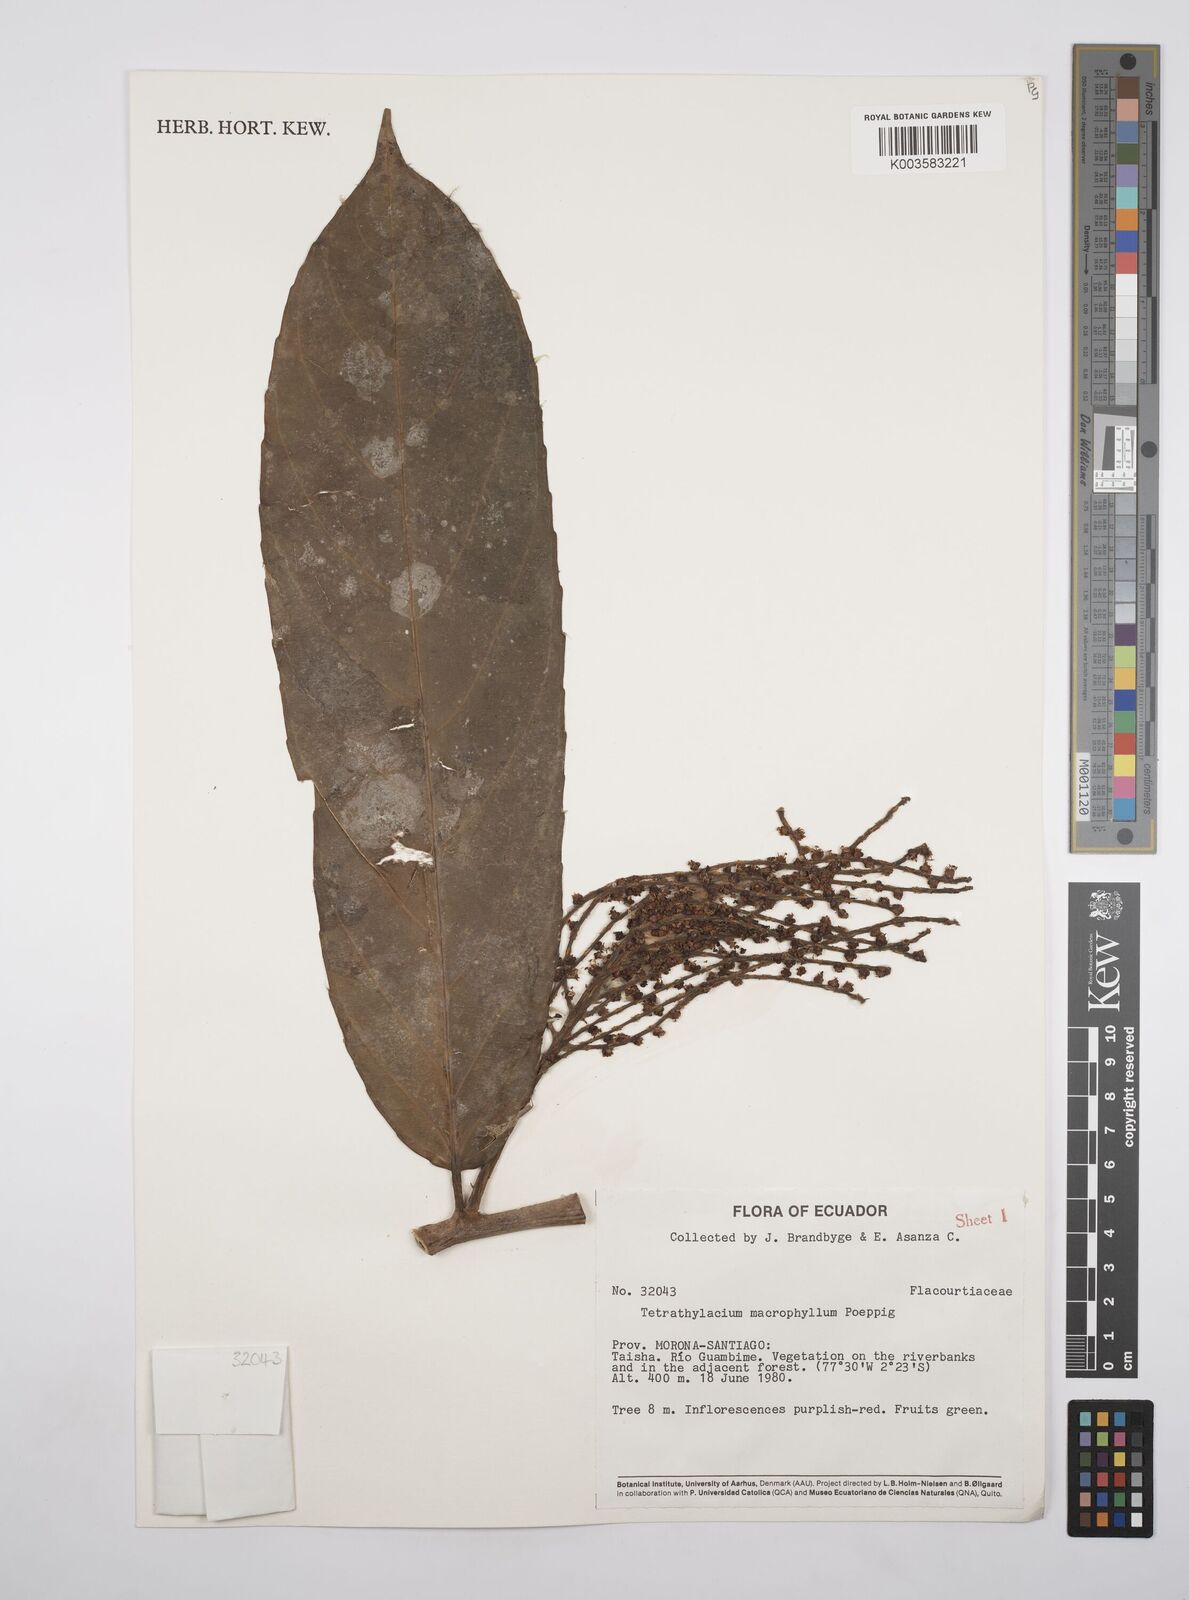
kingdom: Plantae
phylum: Tracheophyta
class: Magnoliopsida
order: Malpighiales
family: Salicaceae
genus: Tetrathylacium
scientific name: Tetrathylacium macrophyllum
